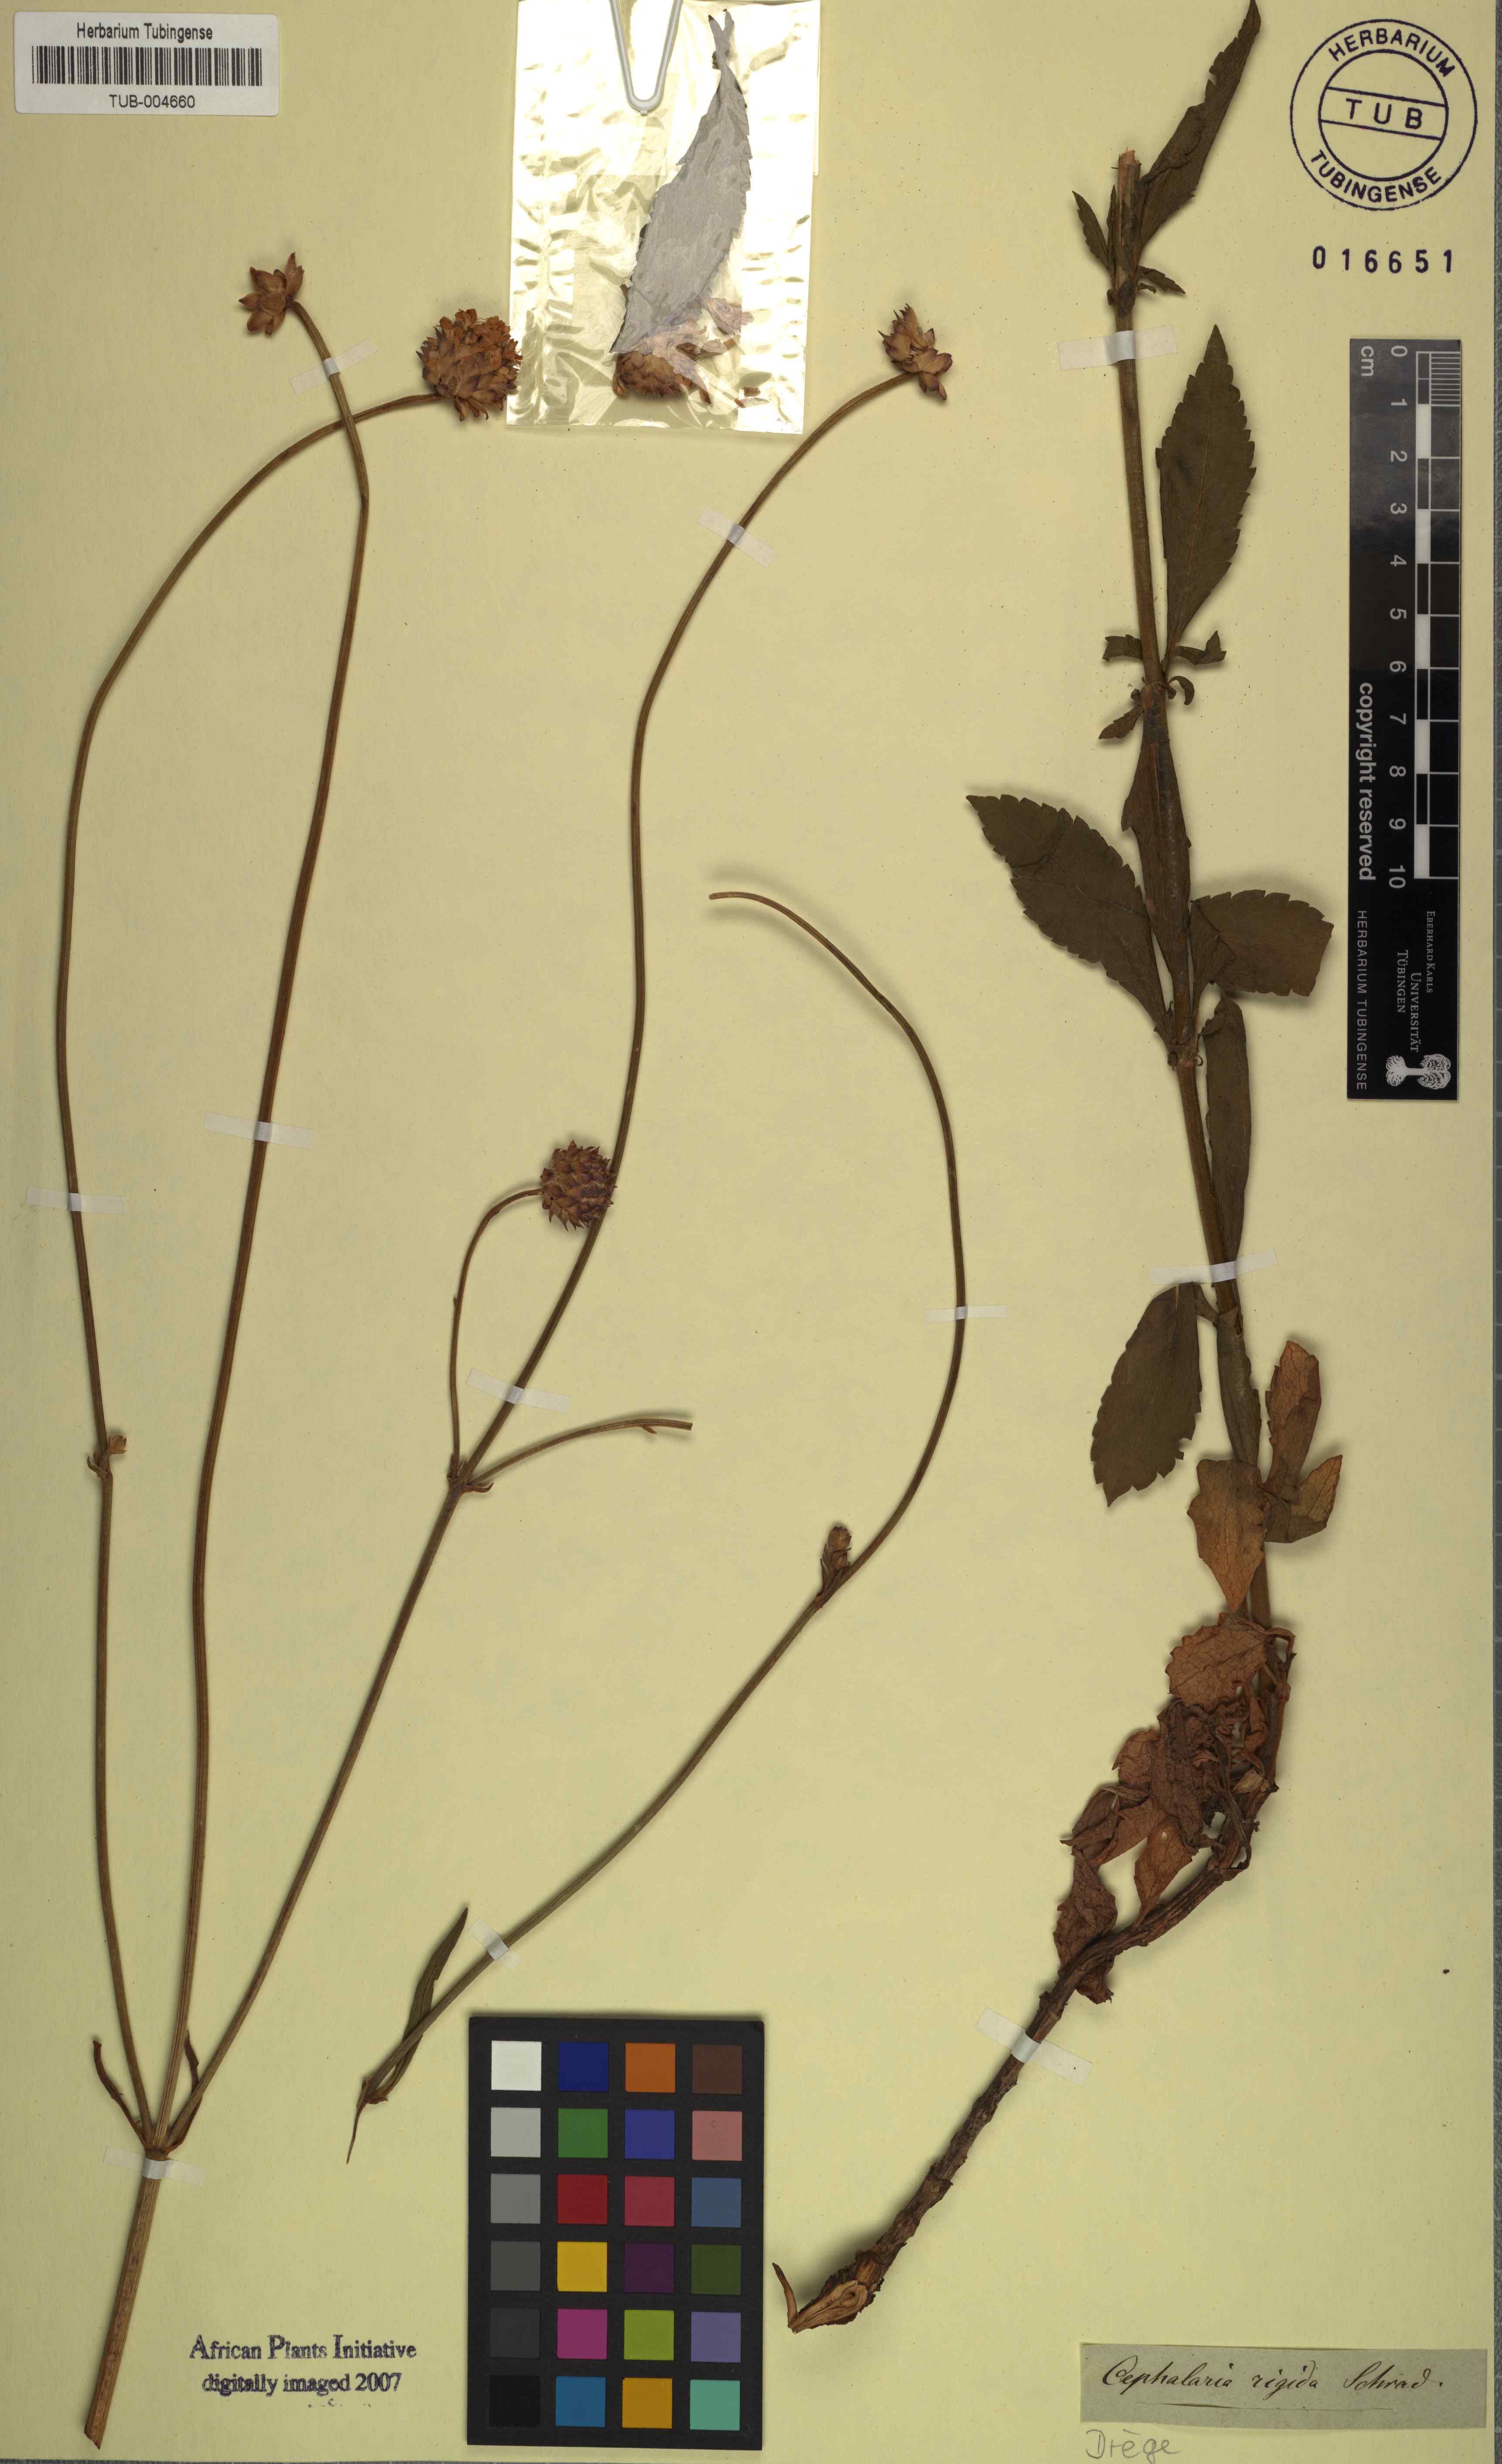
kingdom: Plantae
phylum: Tracheophyta
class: Magnoliopsida
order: Dipsacales
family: Caprifoliaceae
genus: Cephalaria
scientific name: Cephalaria rigida
